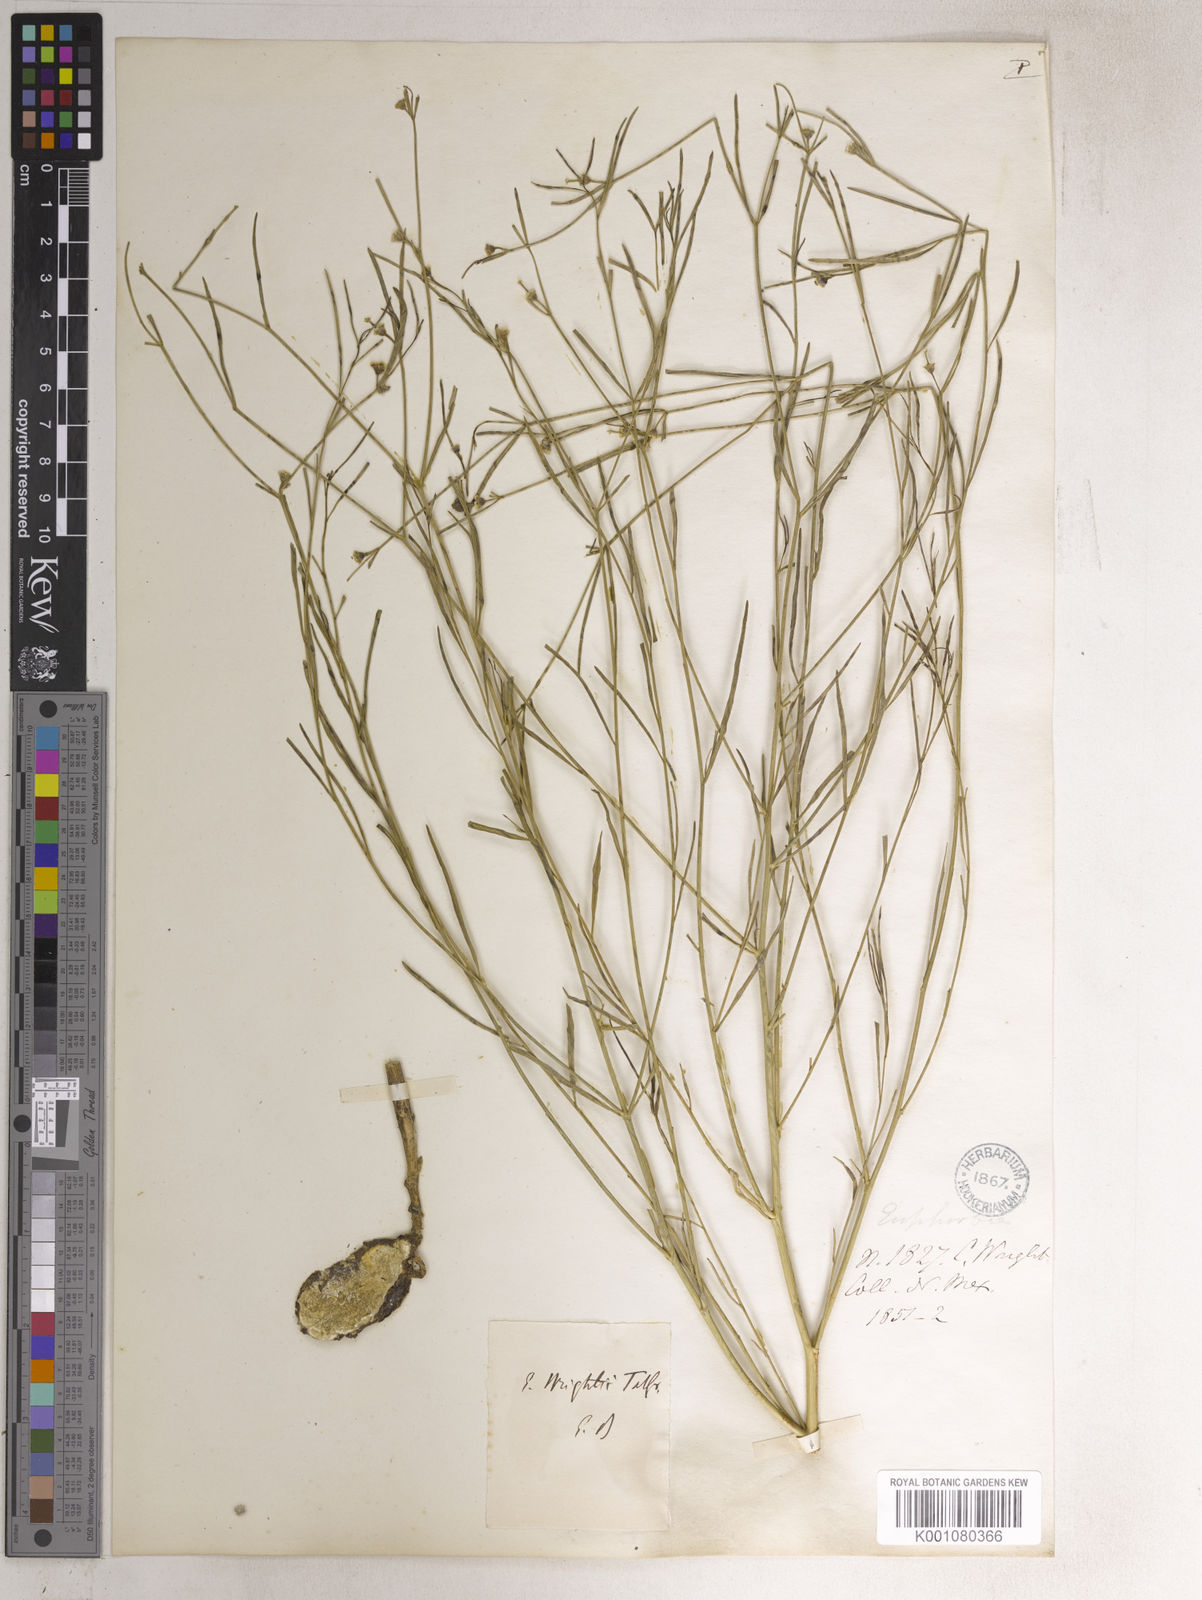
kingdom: Plantae
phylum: Tracheophyta
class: Magnoliopsida
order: Malpighiales
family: Euphorbiaceae
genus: Euphorbia
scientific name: Euphorbia wrightii
